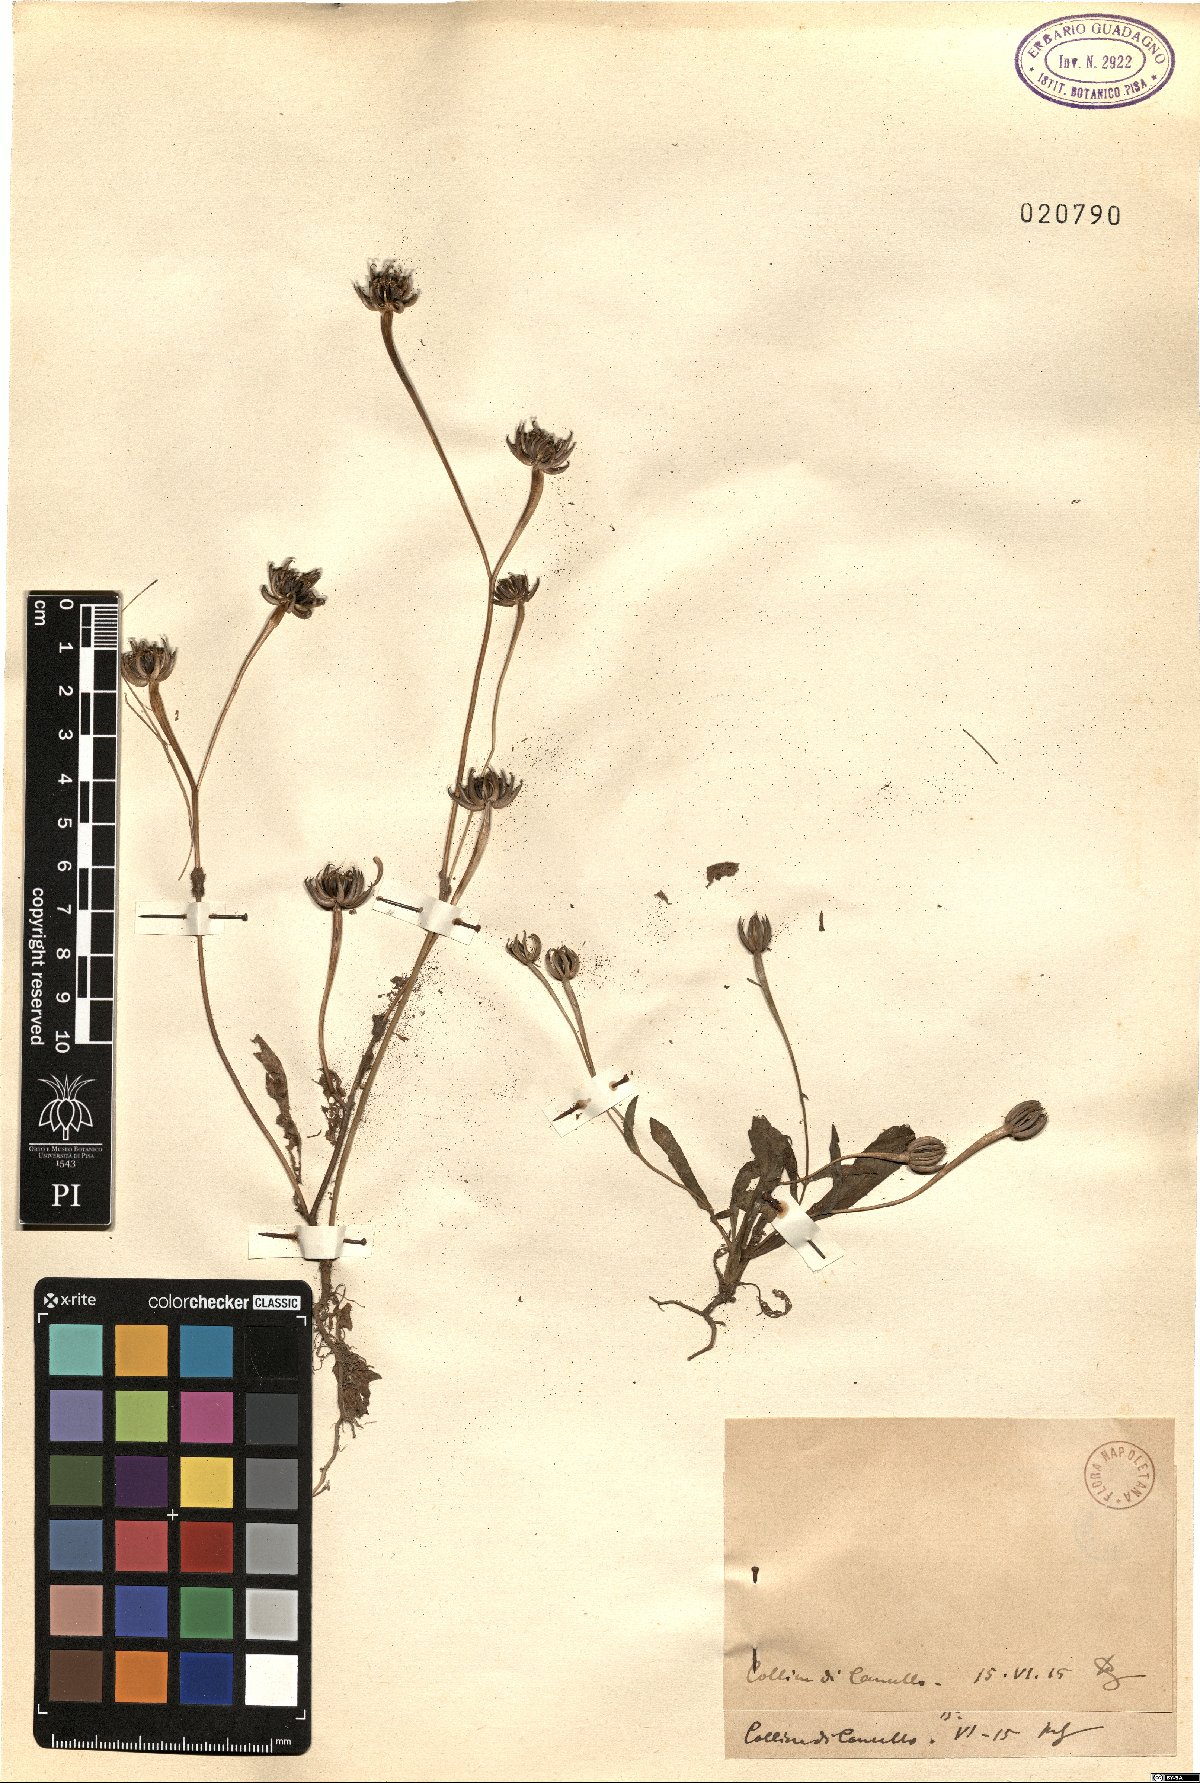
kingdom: Plantae
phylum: Tracheophyta
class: Magnoliopsida
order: Asterales
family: Asteraceae
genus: Rhagadiolus
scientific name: Rhagadiolus
